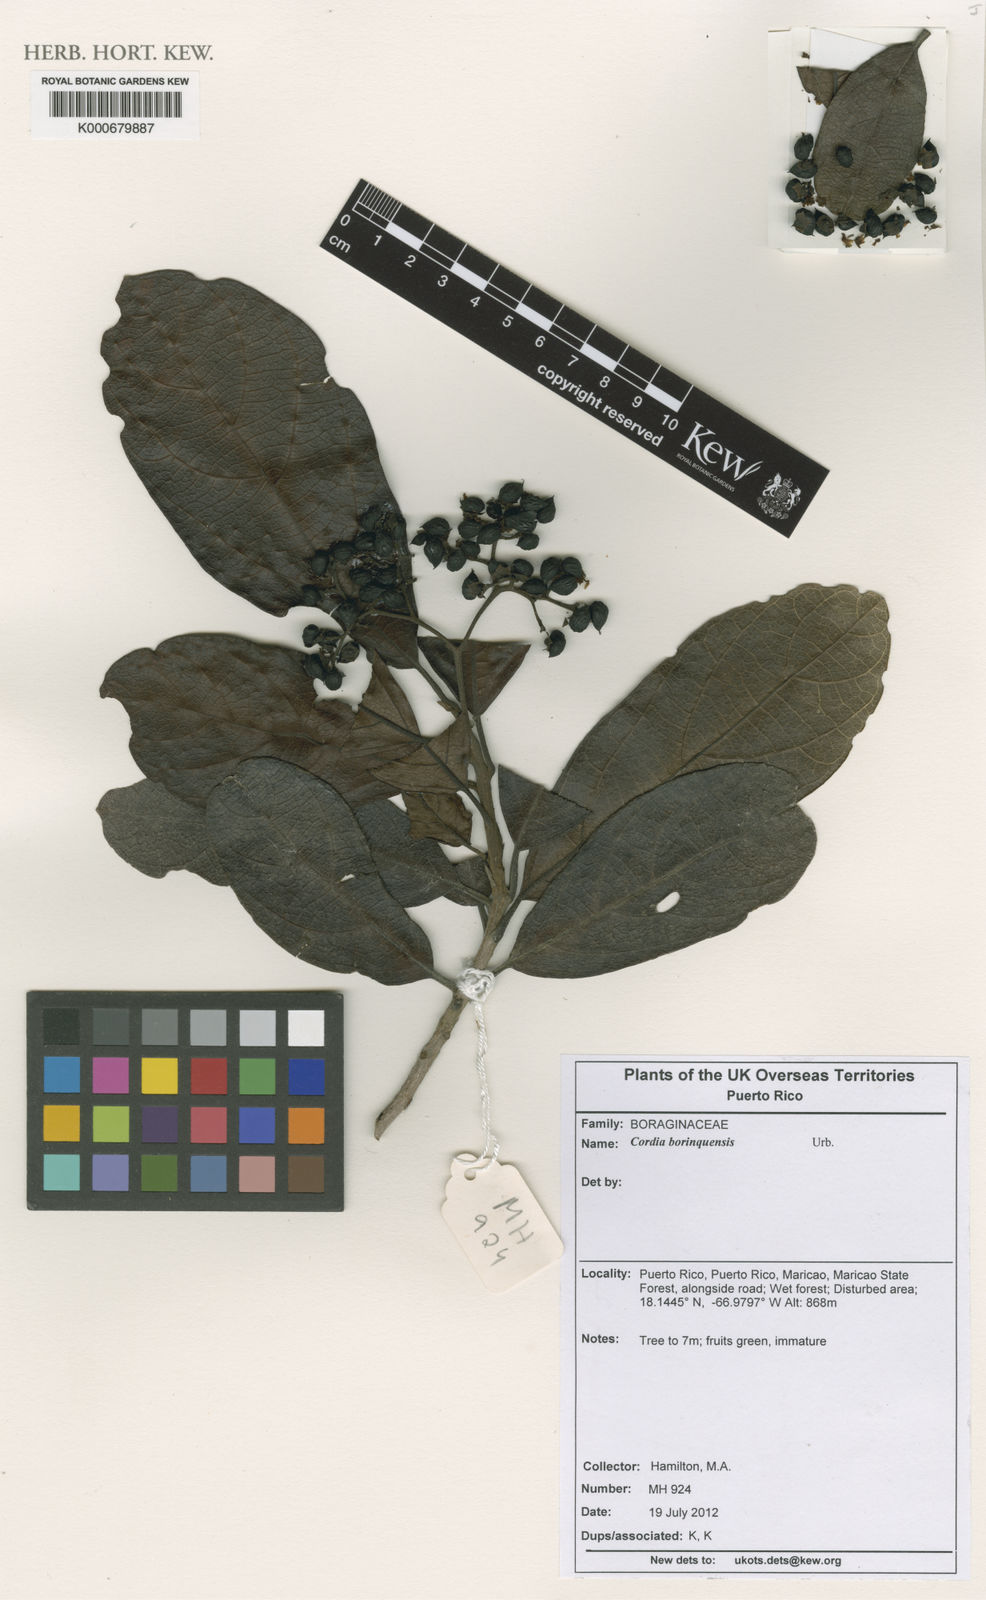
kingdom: Plantae
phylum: Tracheophyta
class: Magnoliopsida
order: Boraginales
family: Cordiaceae
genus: Cordia
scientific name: Cordia borinquensis
